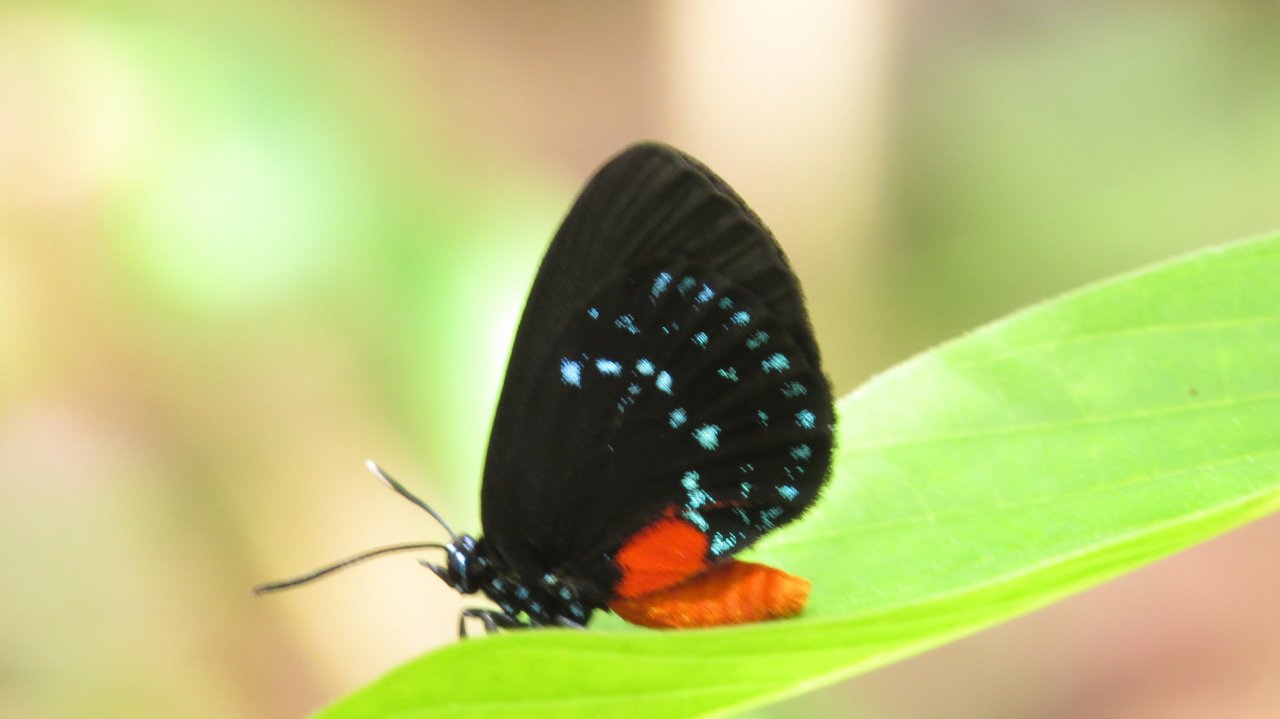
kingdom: Animalia
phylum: Arthropoda
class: Insecta
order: Lepidoptera
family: Lycaenidae
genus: Eumaeus
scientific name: Eumaeus atala
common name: Atala
